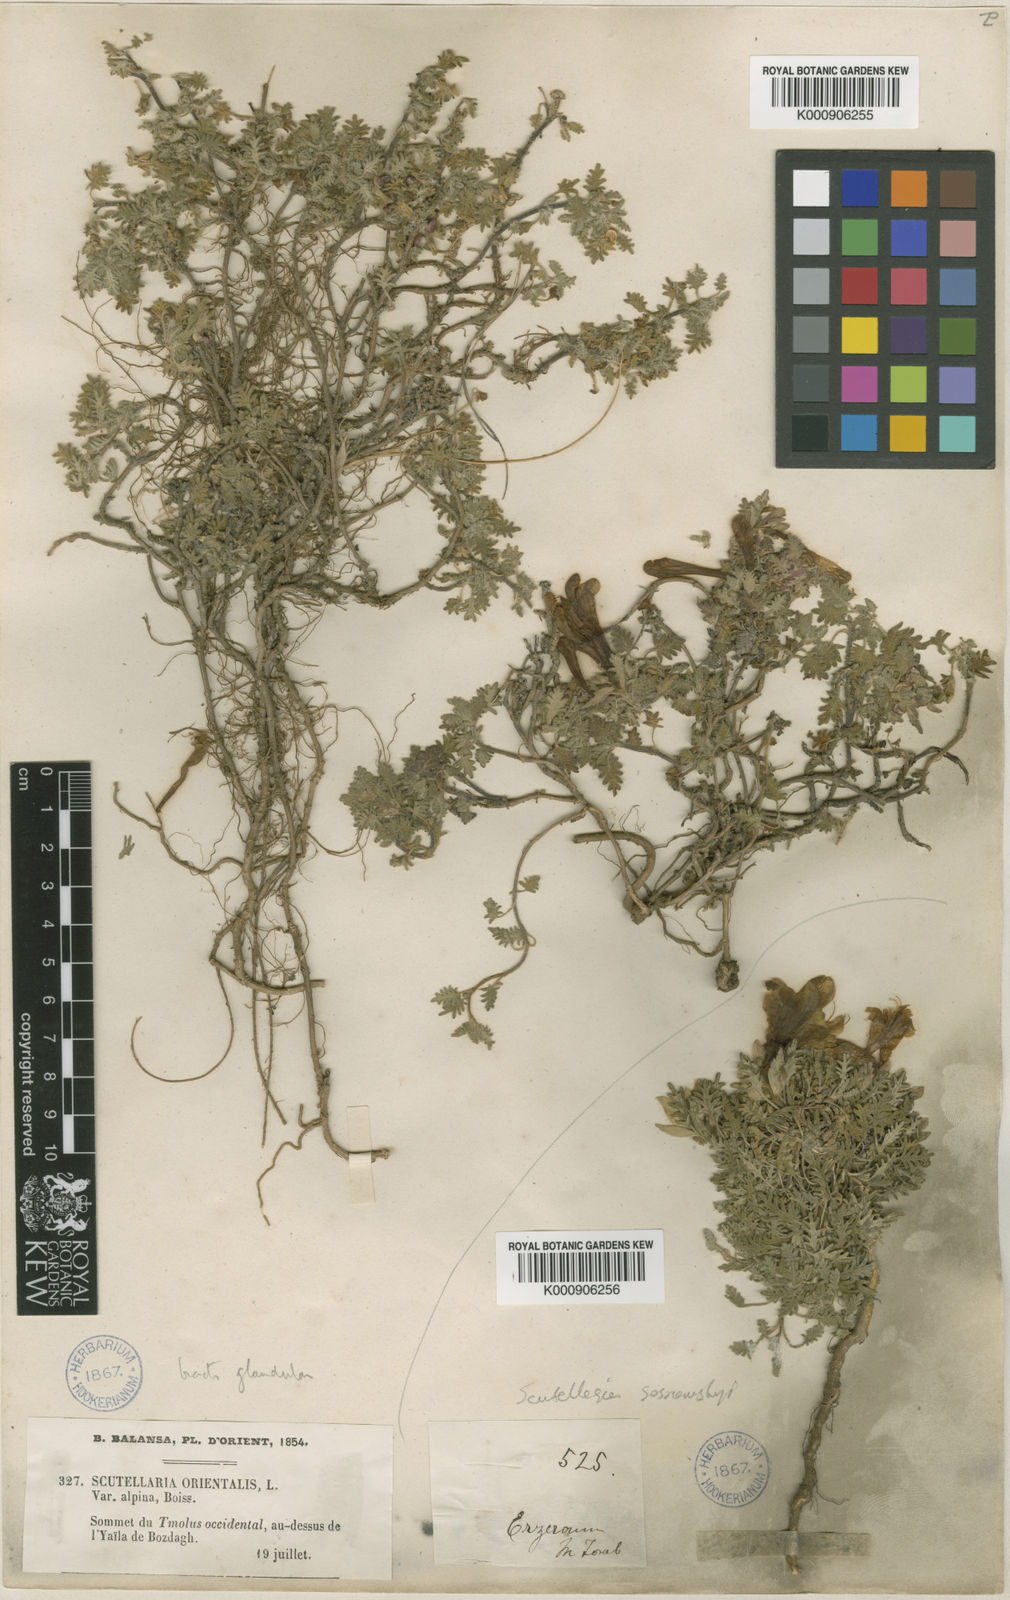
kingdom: Plantae
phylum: Tracheophyta
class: Magnoliopsida
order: Lamiales
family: Lamiaceae
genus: Scutellaria
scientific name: Scutellaria orientalis
